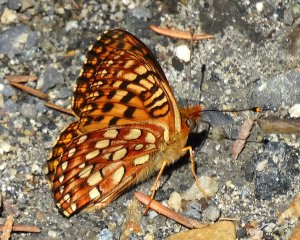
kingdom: Animalia
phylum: Arthropoda
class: Insecta
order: Lepidoptera
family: Nymphalidae
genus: Speyeria
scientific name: Speyeria hydaspe
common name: Hydaspe Fritillary
